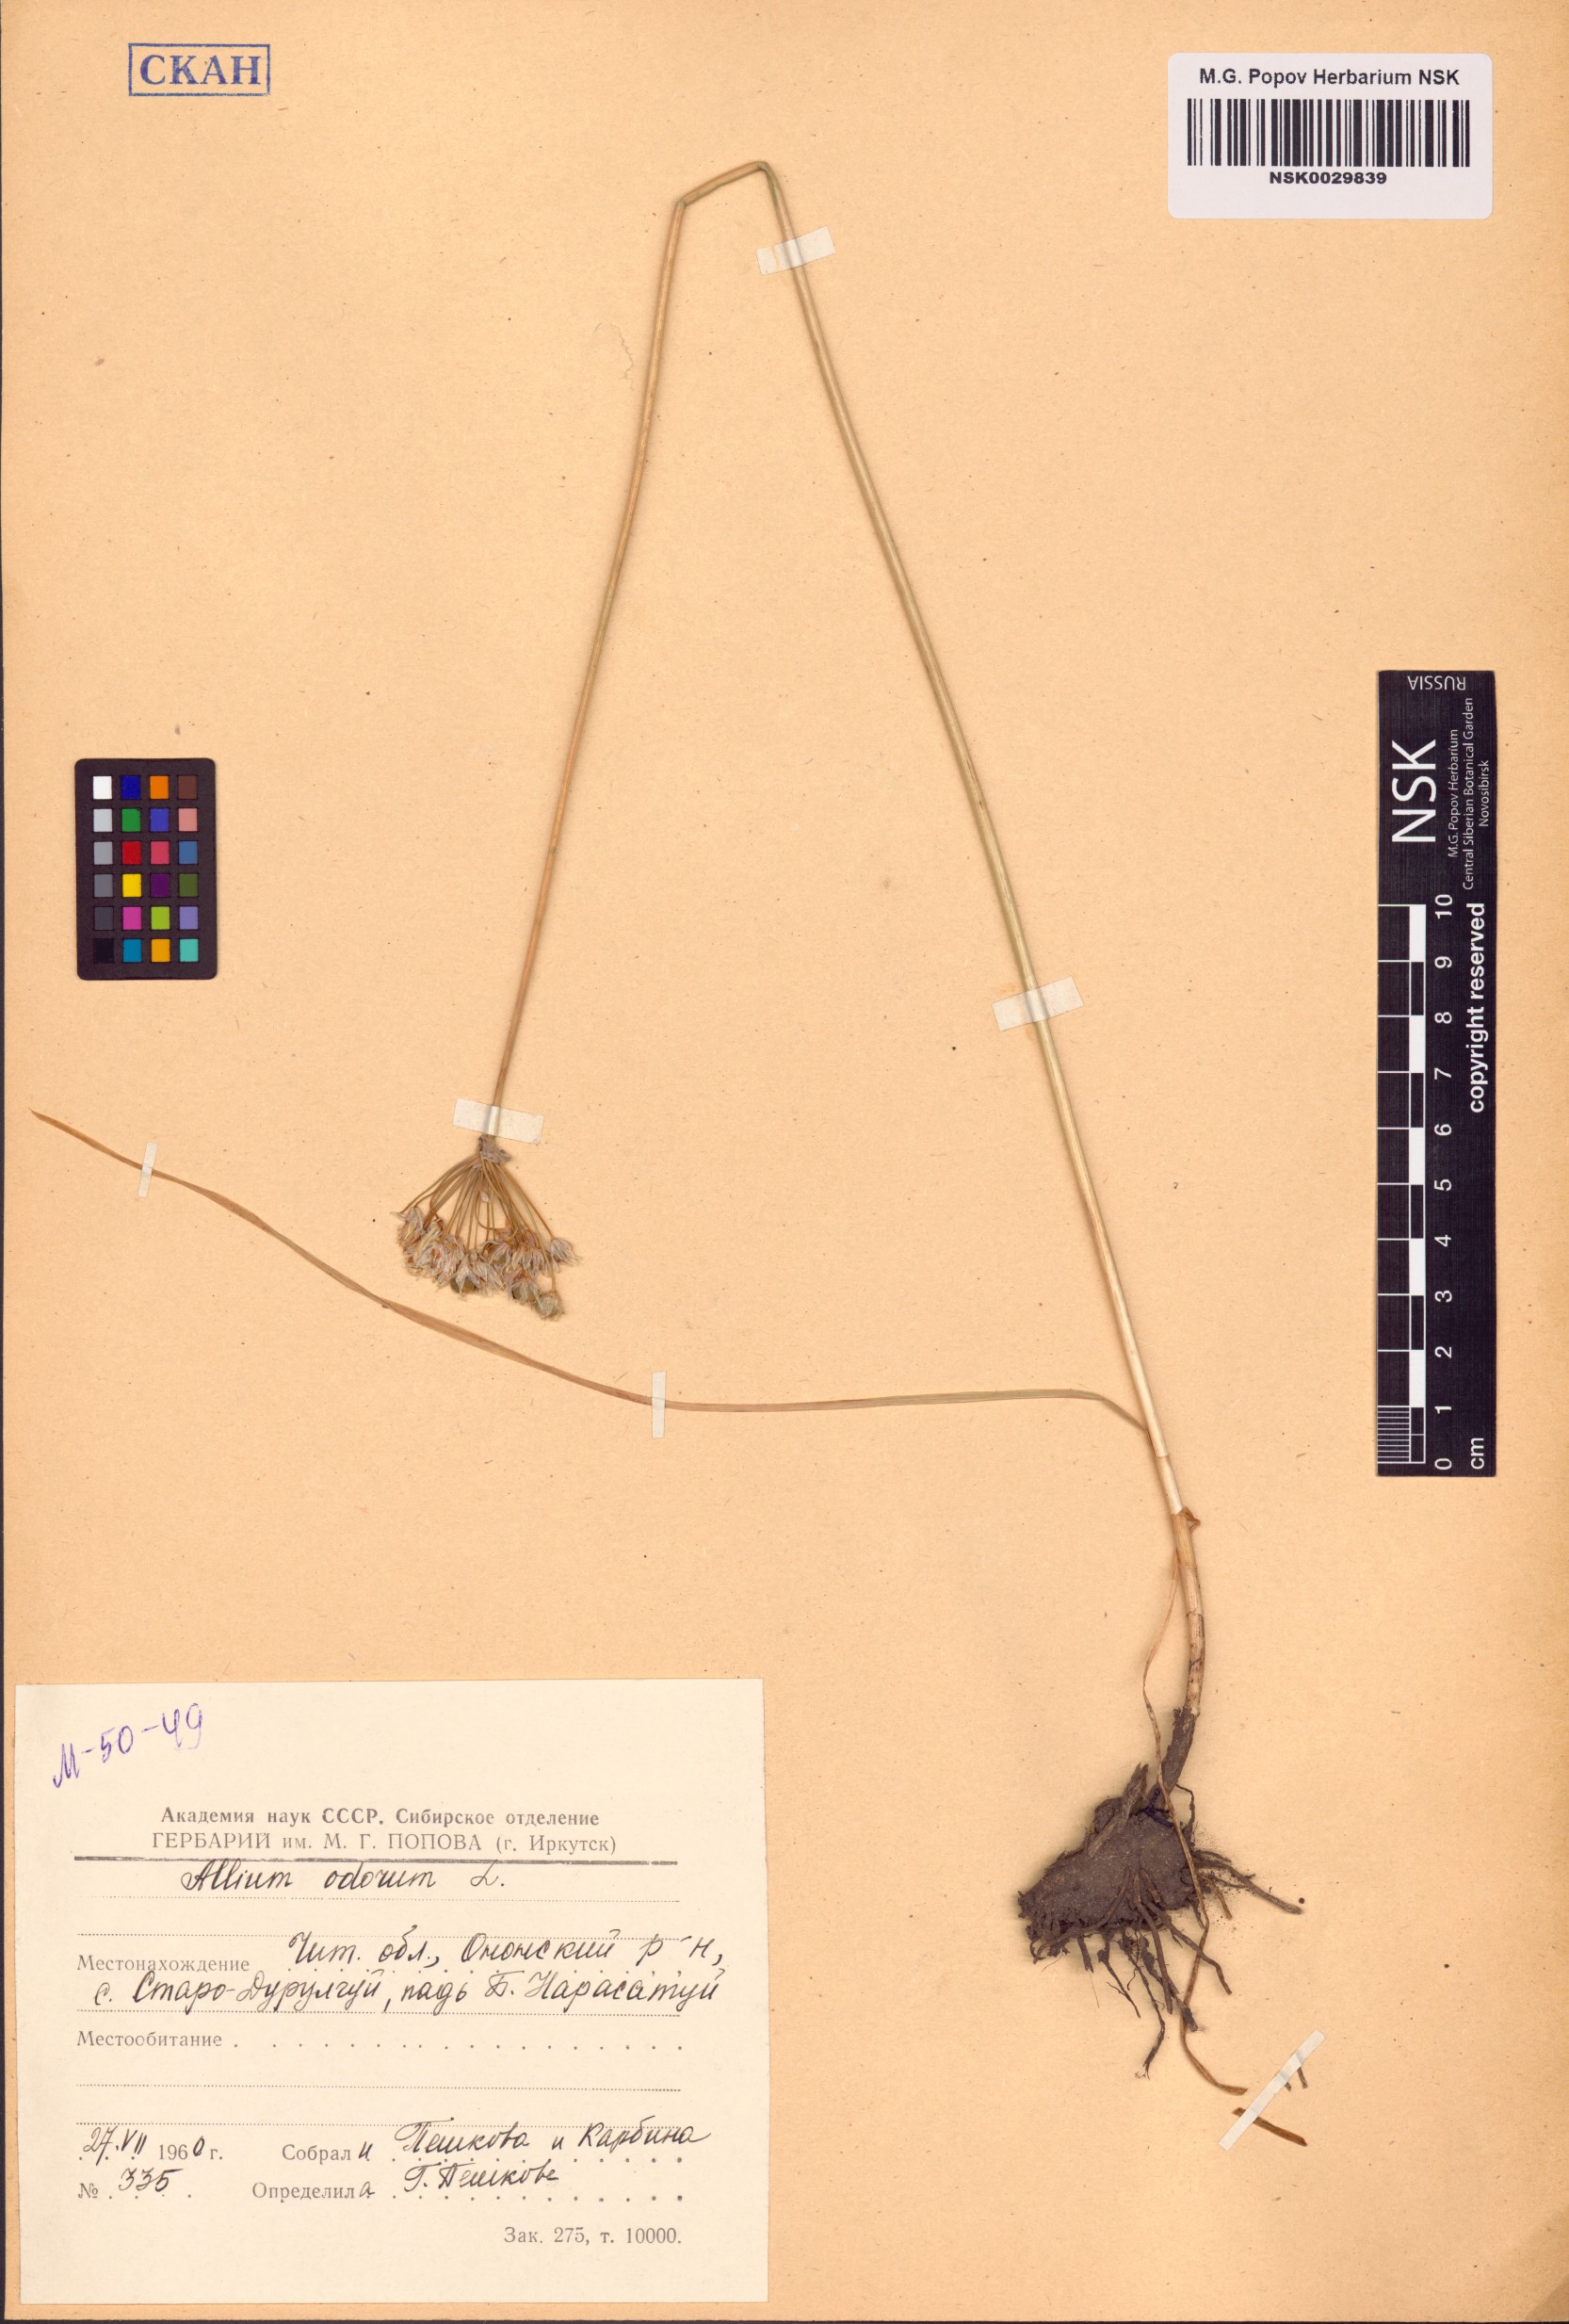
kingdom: Plantae
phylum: Tracheophyta
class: Liliopsida
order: Asparagales
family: Amaryllidaceae
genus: Allium
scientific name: Allium ramosum
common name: Fragrant garlic
